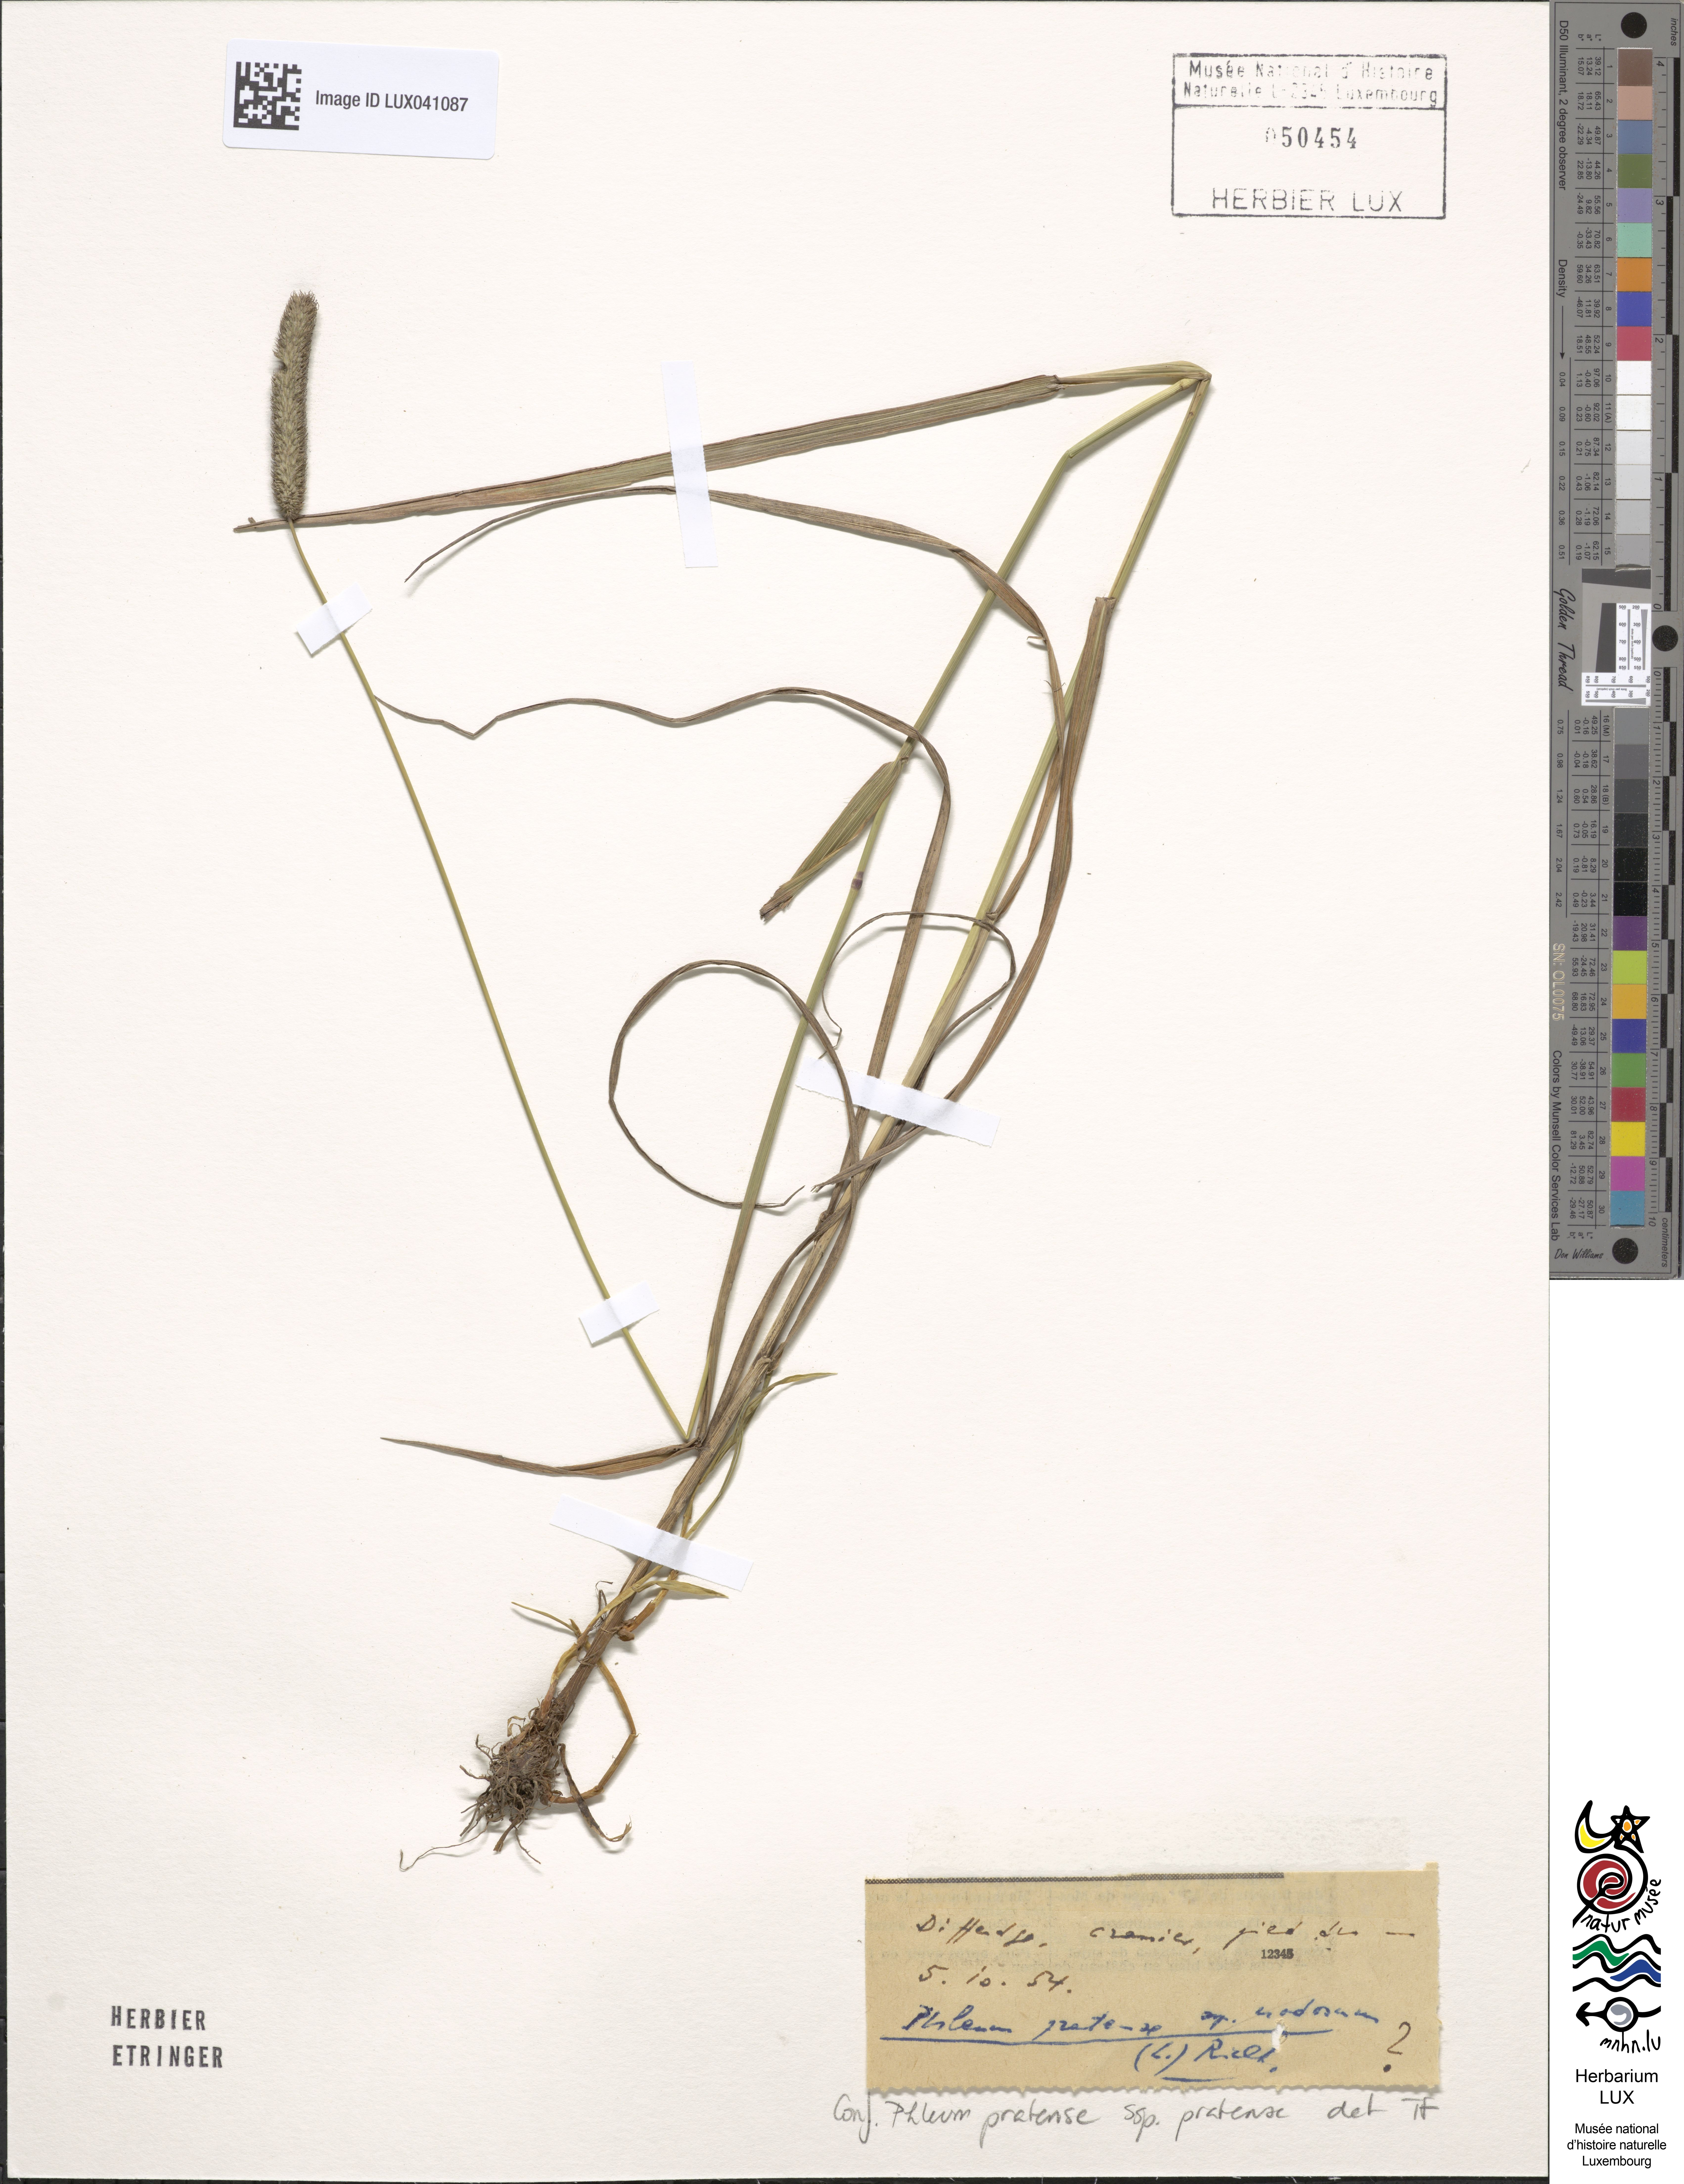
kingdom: Plantae
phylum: Tracheophyta
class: Liliopsida
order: Poales
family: Poaceae
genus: Phleum
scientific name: Phleum pratense
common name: Timothy grass
